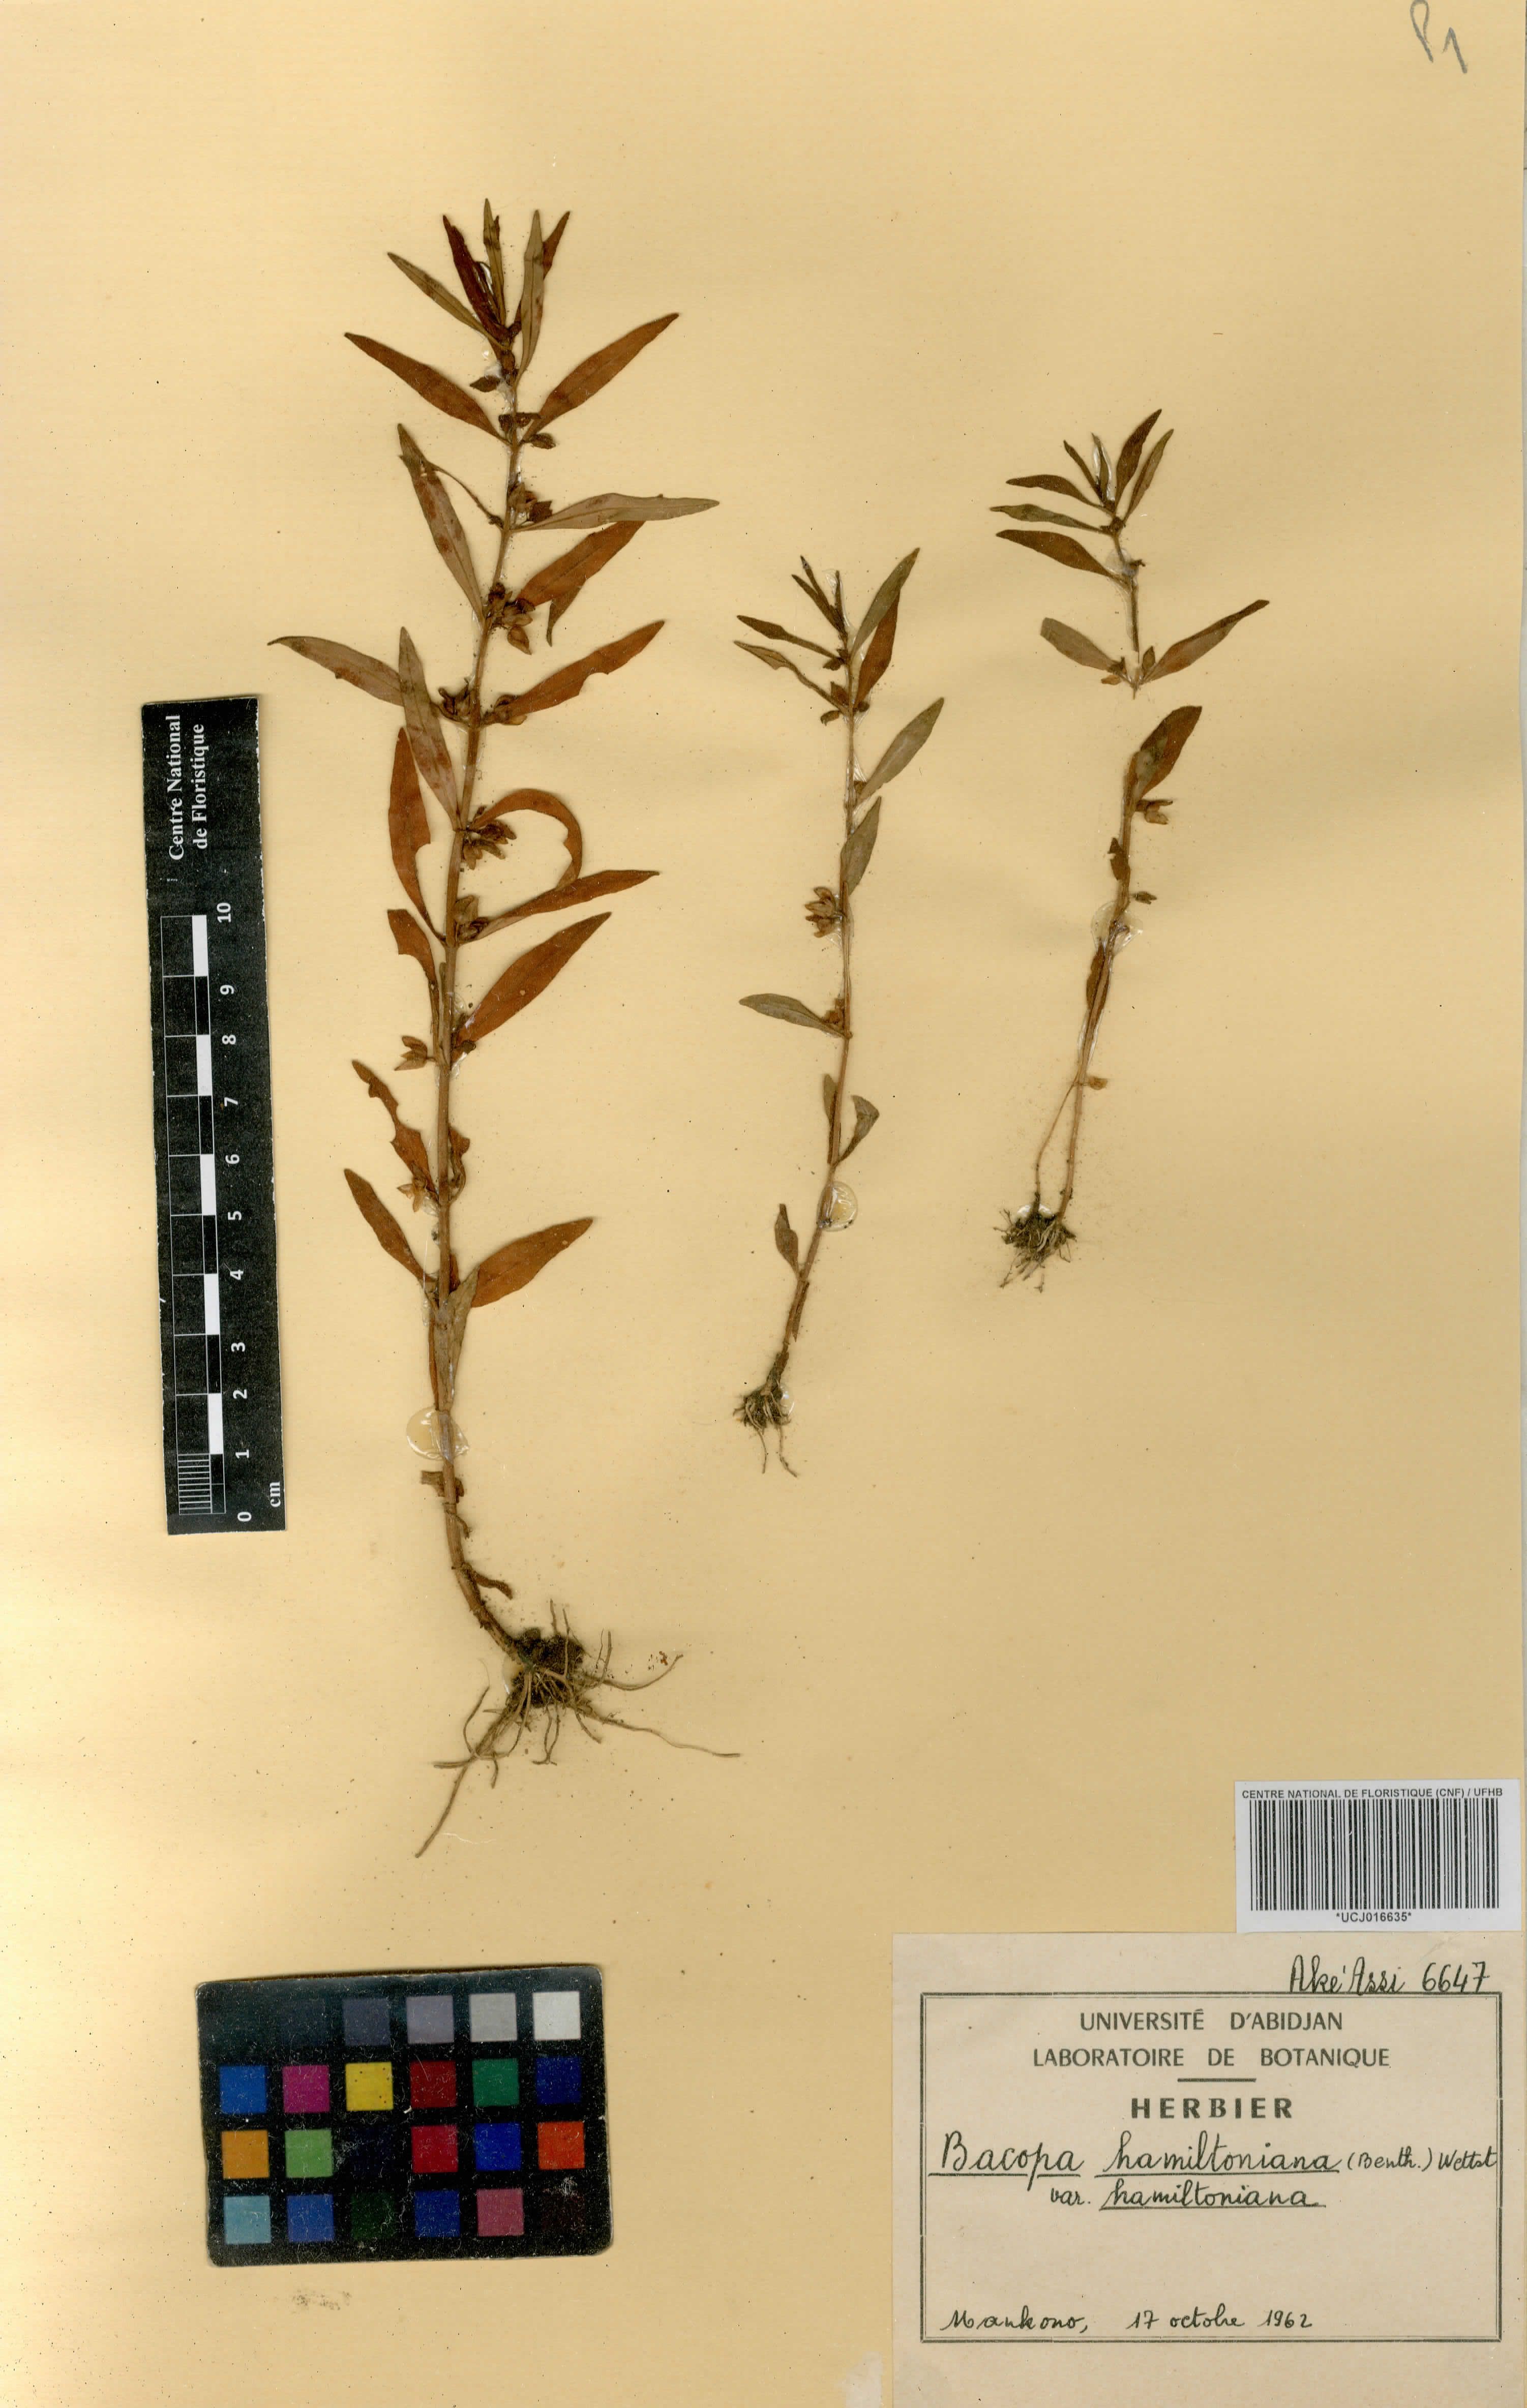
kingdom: Plantae
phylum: Tracheophyta
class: Magnoliopsida
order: Lamiales
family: Plantaginaceae
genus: Bacopa
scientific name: Bacopa hamiltoniana
